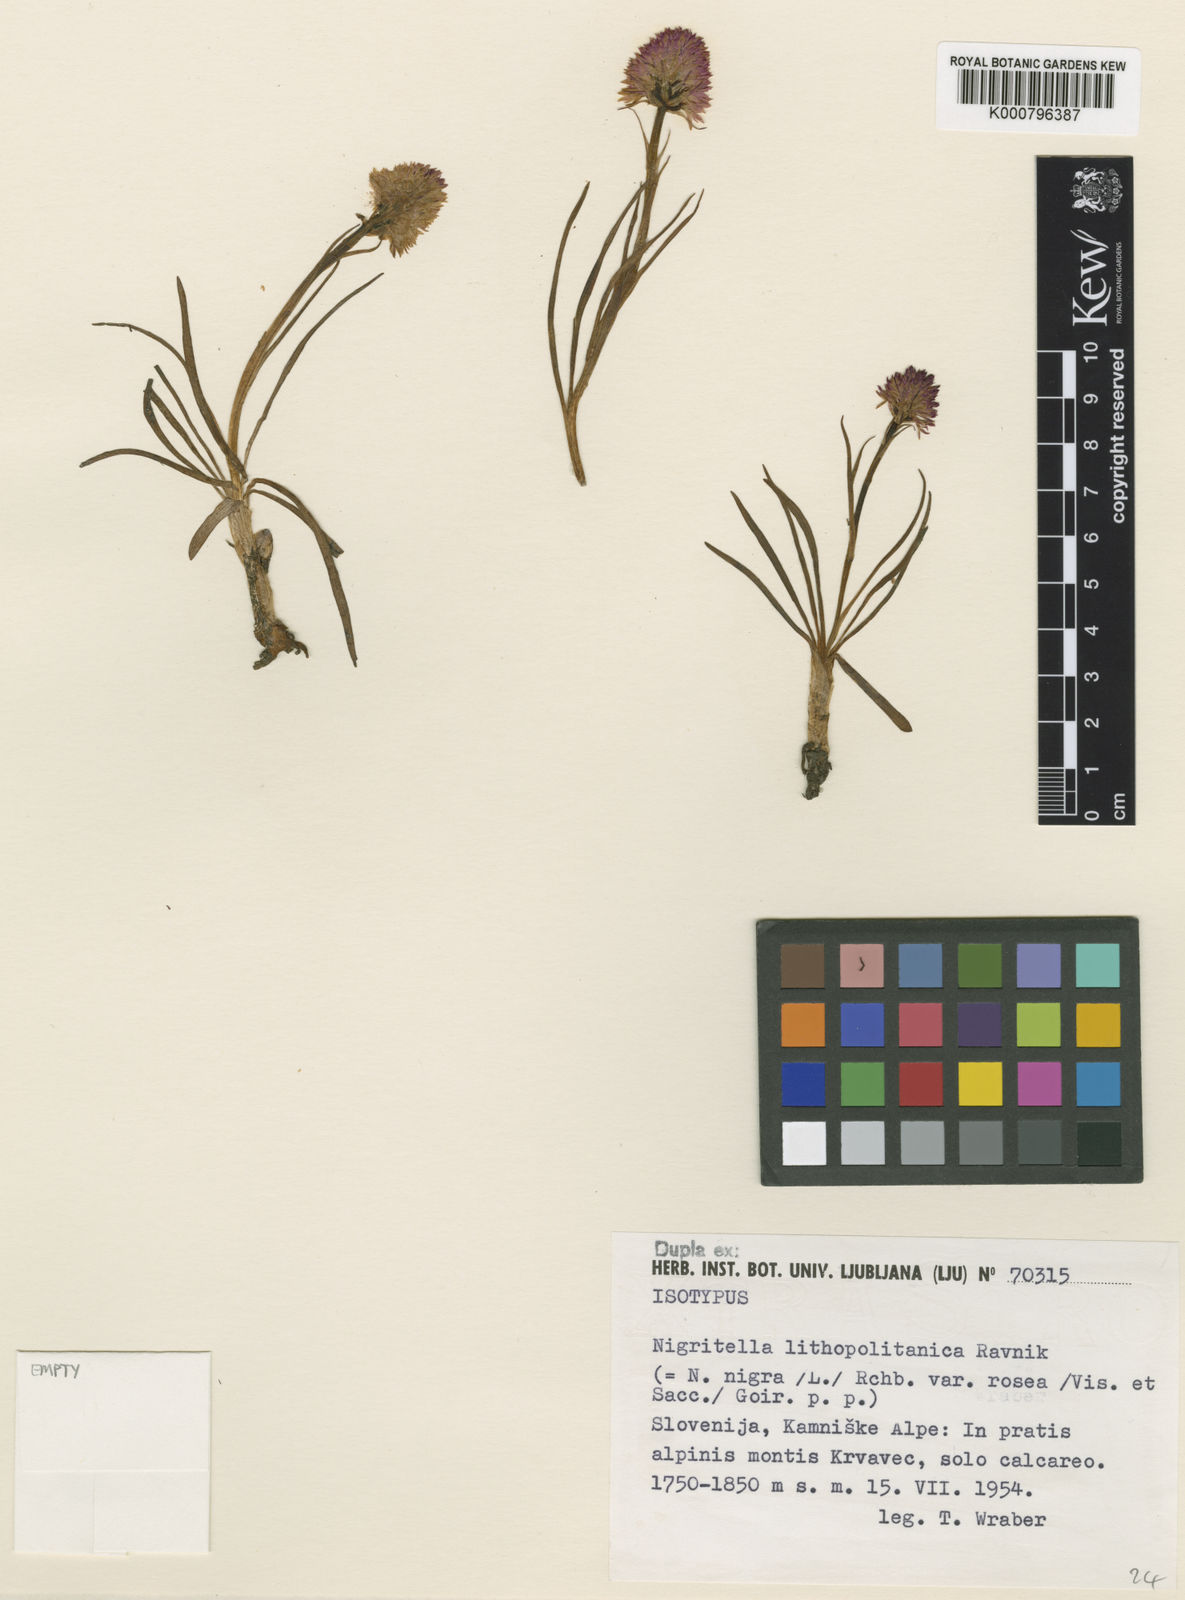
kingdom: Plantae
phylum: Tracheophyta
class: Liliopsida
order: Asparagales
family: Orchidaceae
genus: Gymnadenia
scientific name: Gymnadenia miniata
